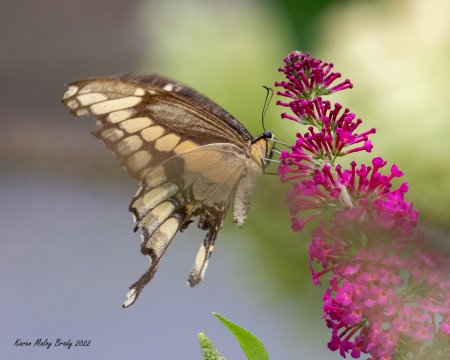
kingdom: Animalia
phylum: Arthropoda
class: Insecta
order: Lepidoptera
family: Papilionidae
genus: Papilio
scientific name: Papilio cresphontes
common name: Eastern Giant Swallowtail
